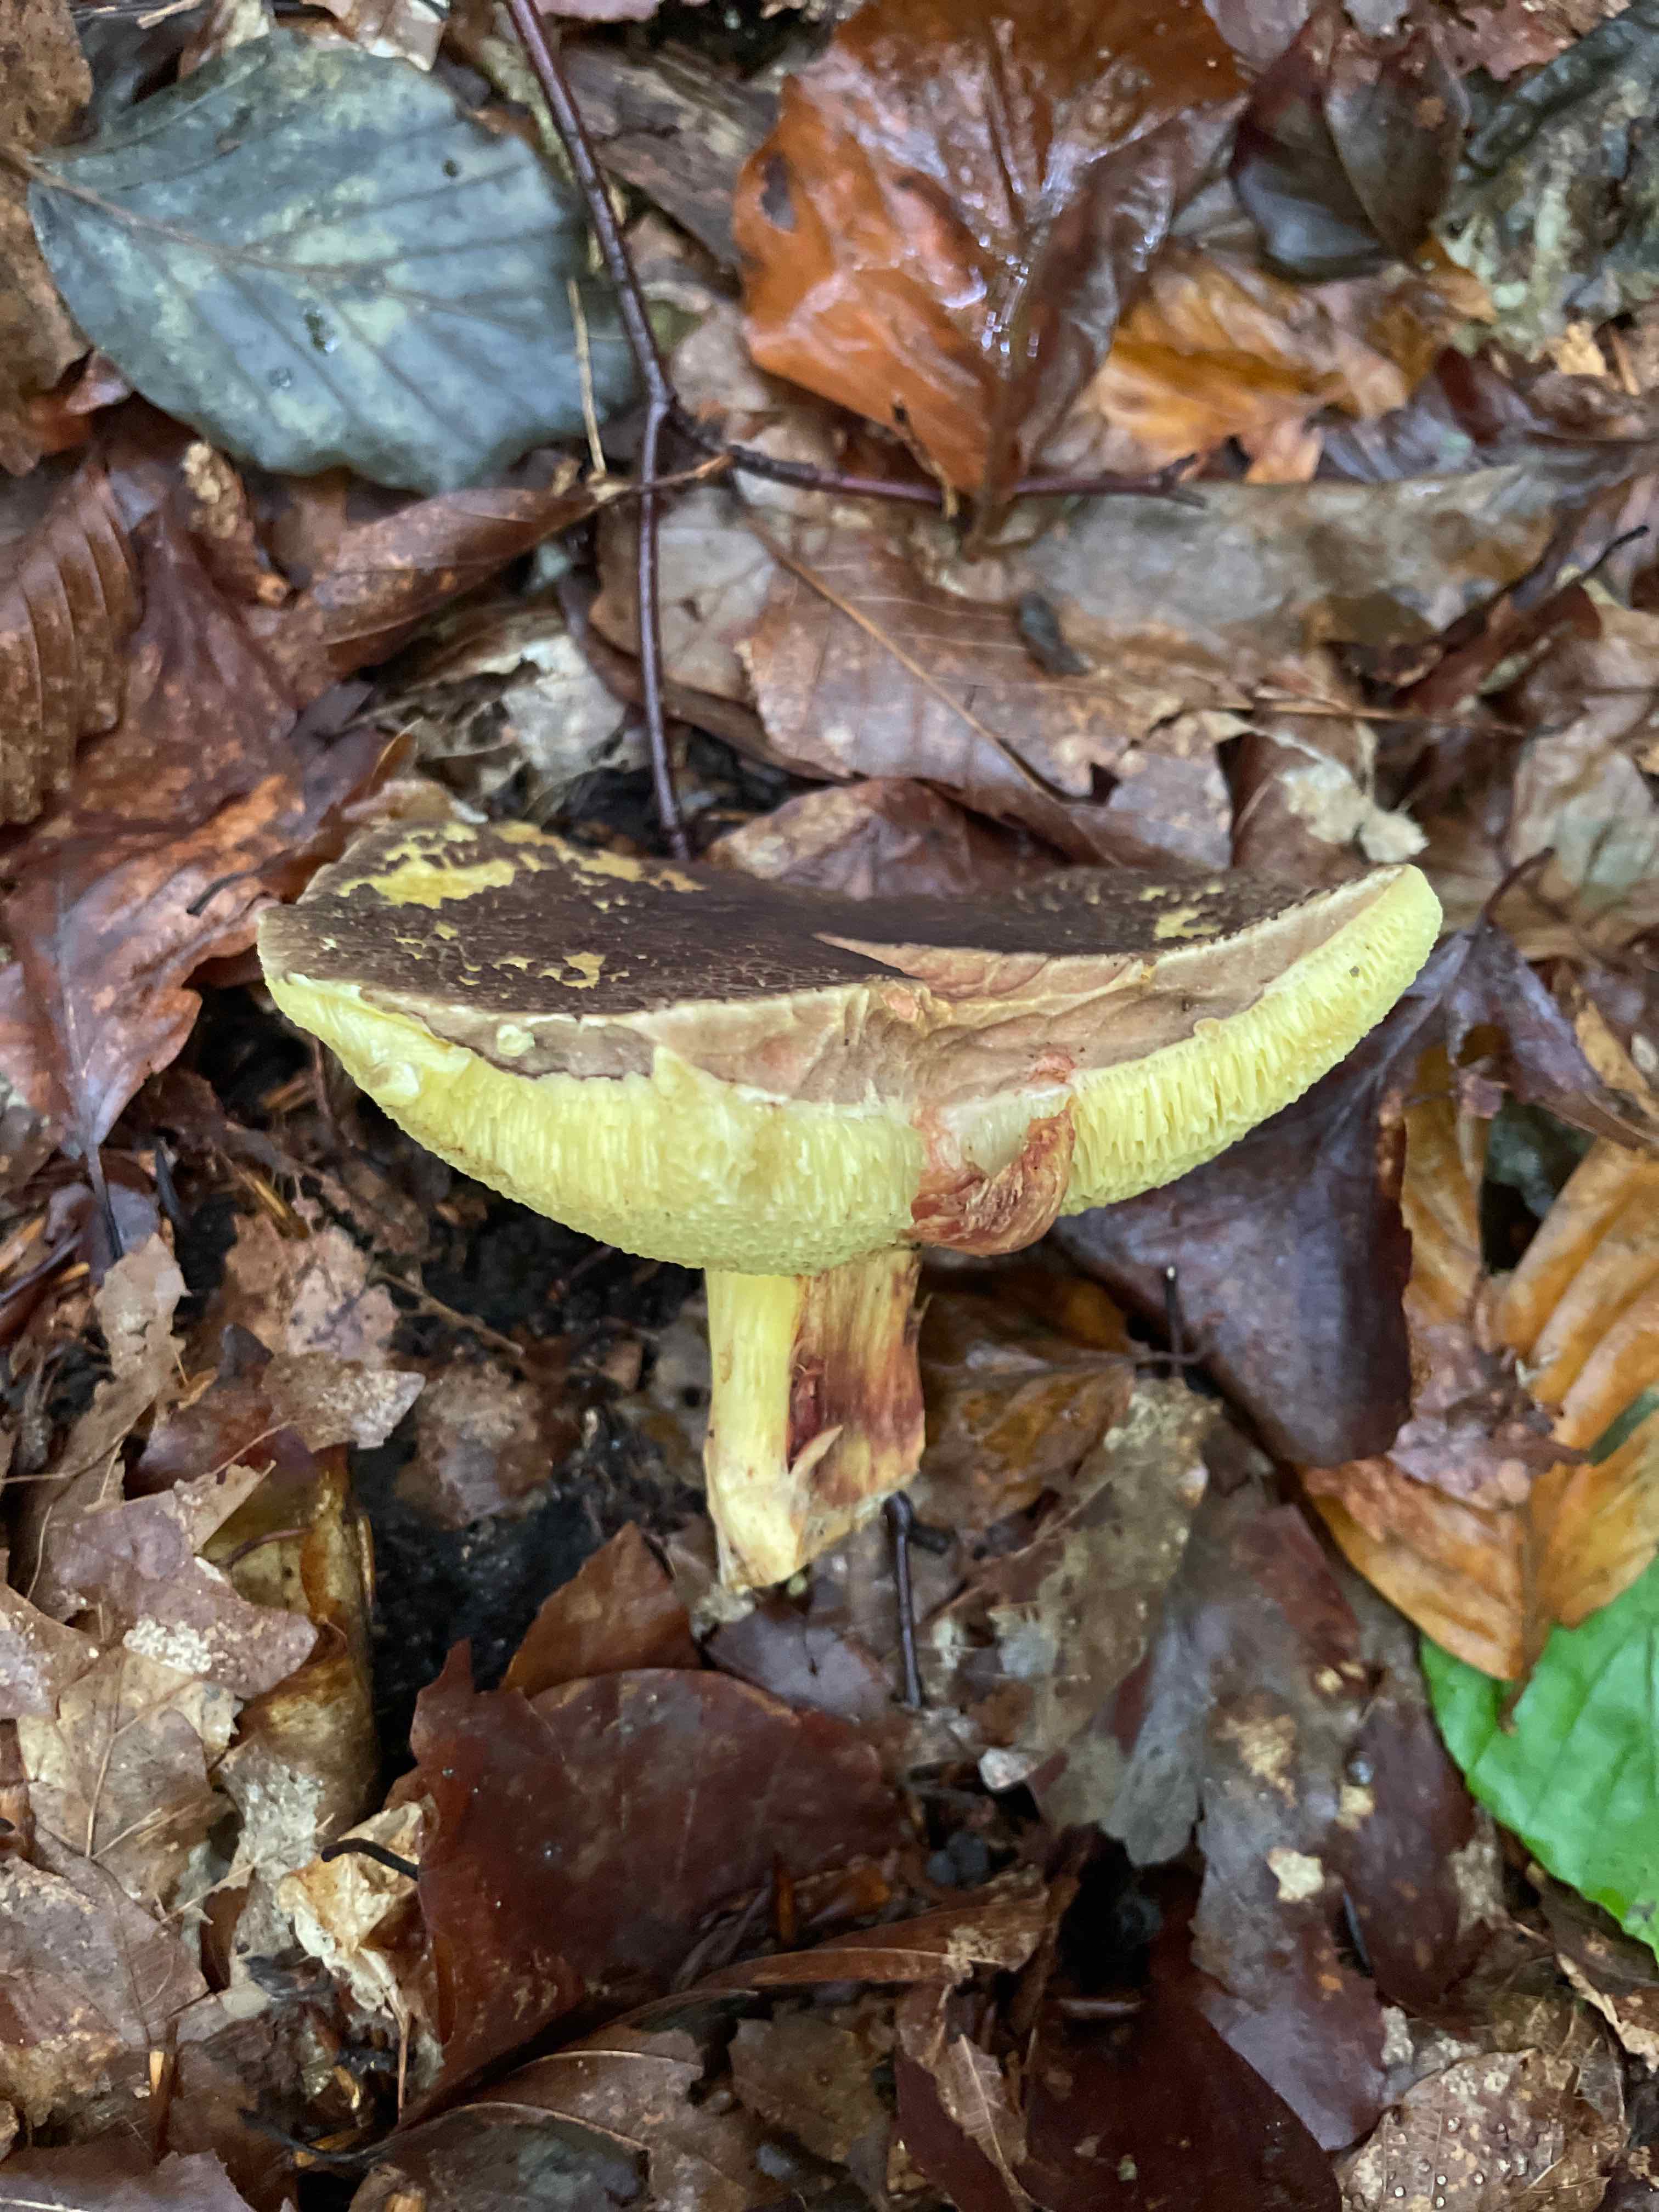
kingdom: Fungi
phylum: Basidiomycota
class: Agaricomycetes
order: Boletales
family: Boletaceae
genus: Xerocomellus
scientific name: Xerocomellus
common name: dværgrørhat
